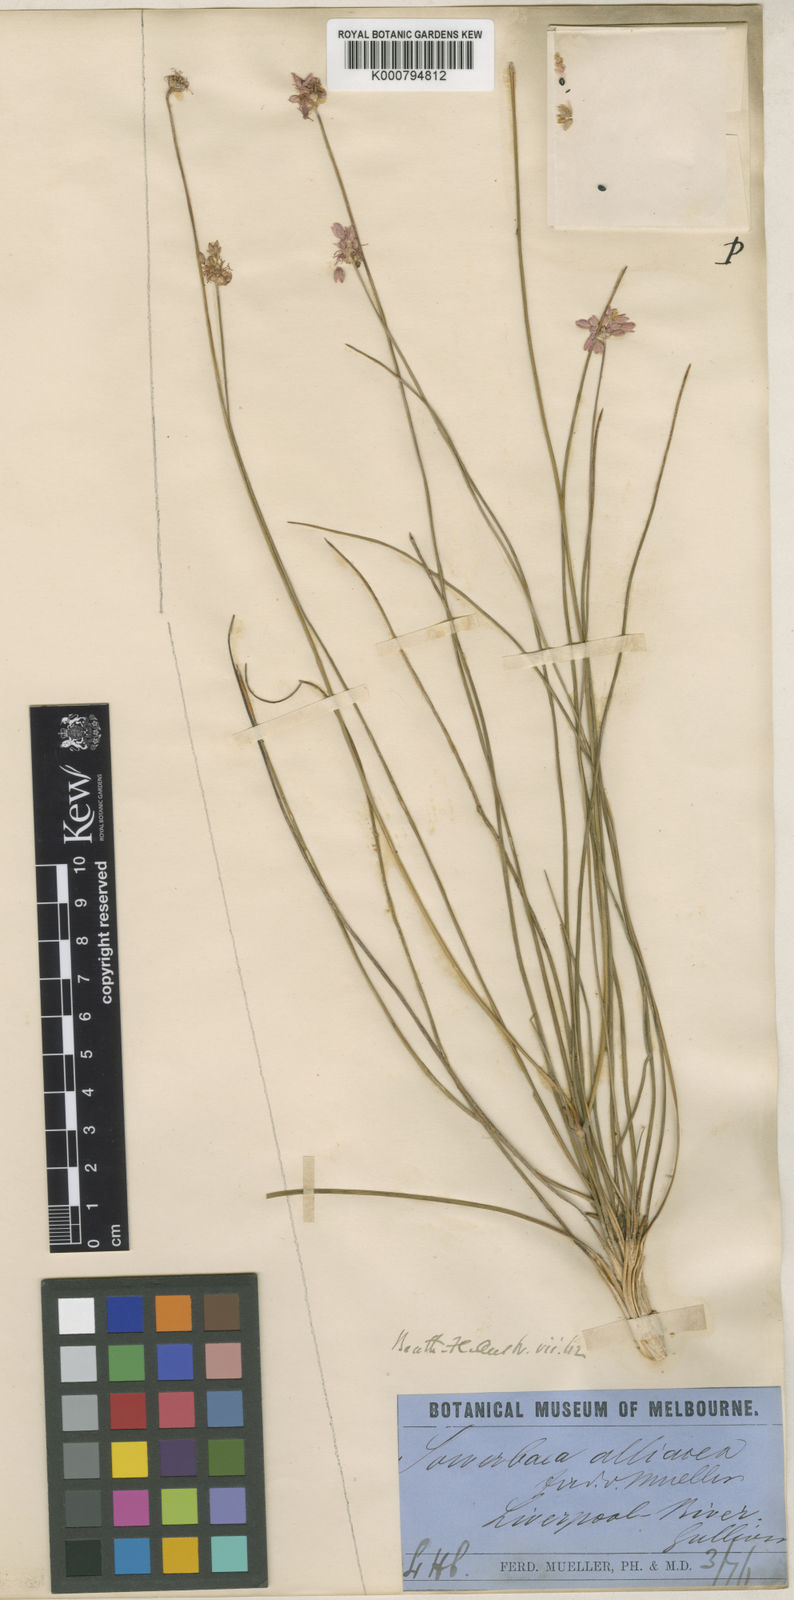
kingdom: Plantae
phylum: Tracheophyta
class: Liliopsida
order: Asparagales
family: Asparagaceae
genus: Sowerbaea
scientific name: Sowerbaea alliacea
